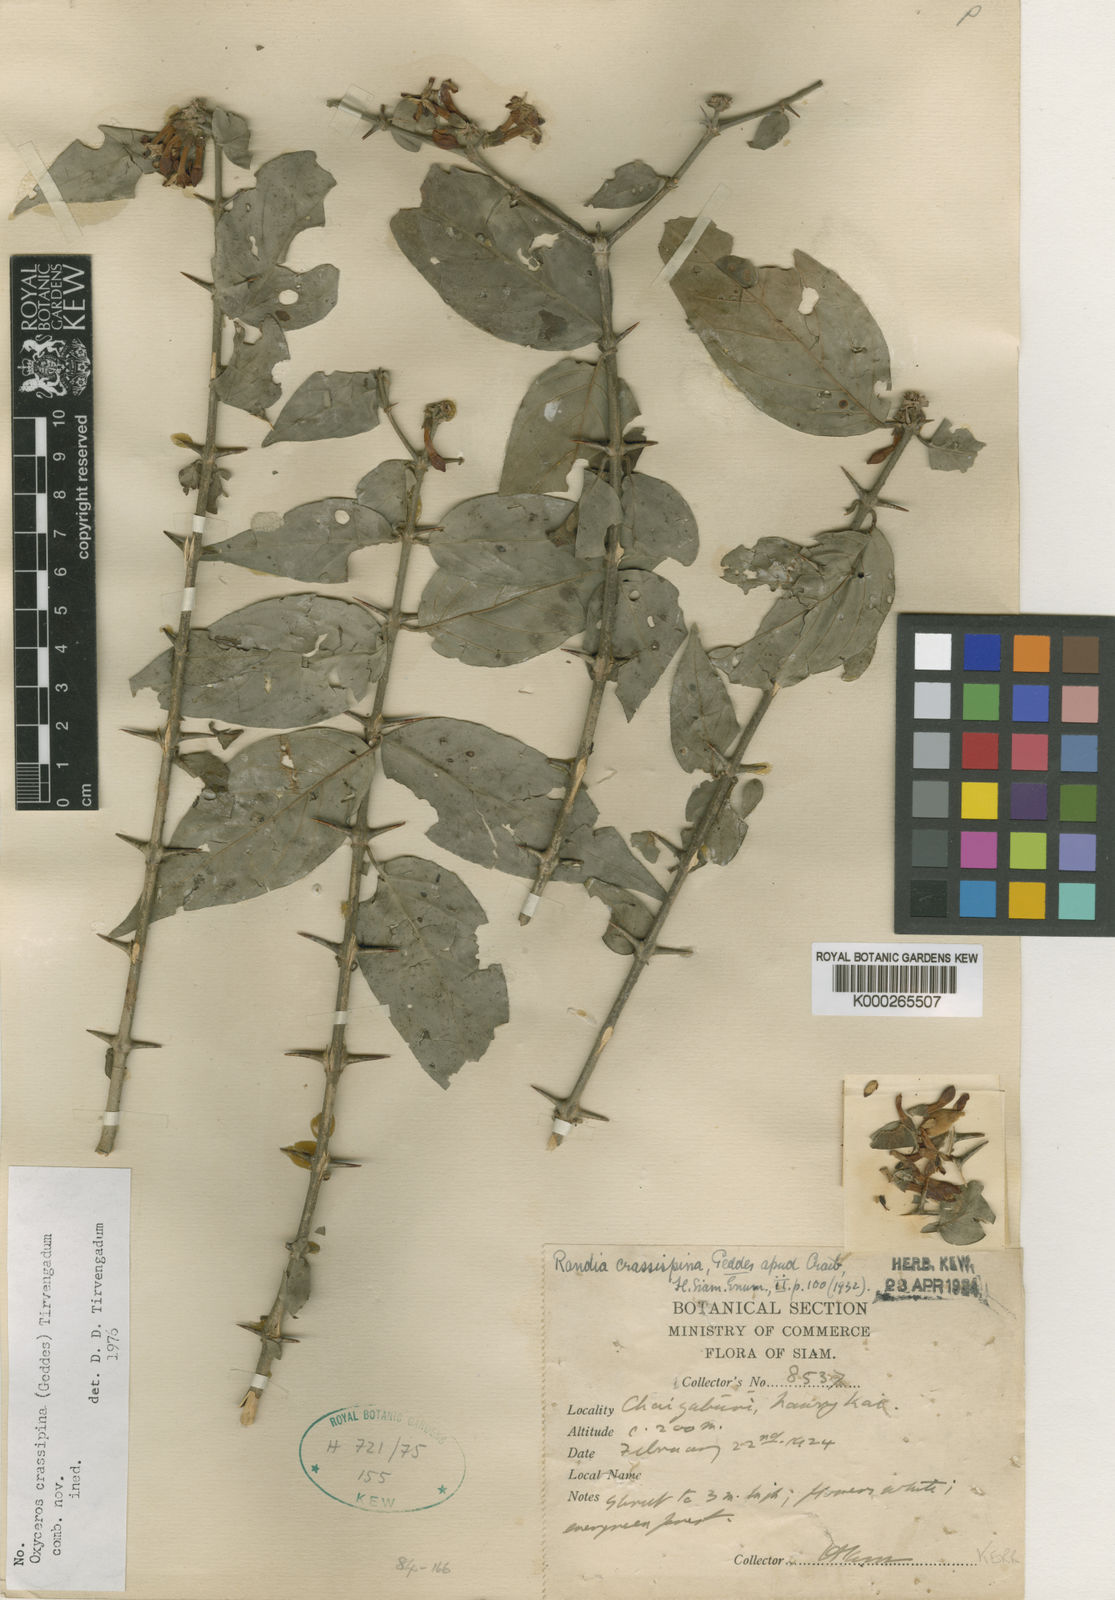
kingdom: Plantae
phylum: Tracheophyta
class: Magnoliopsida
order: Gentianales
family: Rubiaceae
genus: Benkara
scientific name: Benkara sinensis
